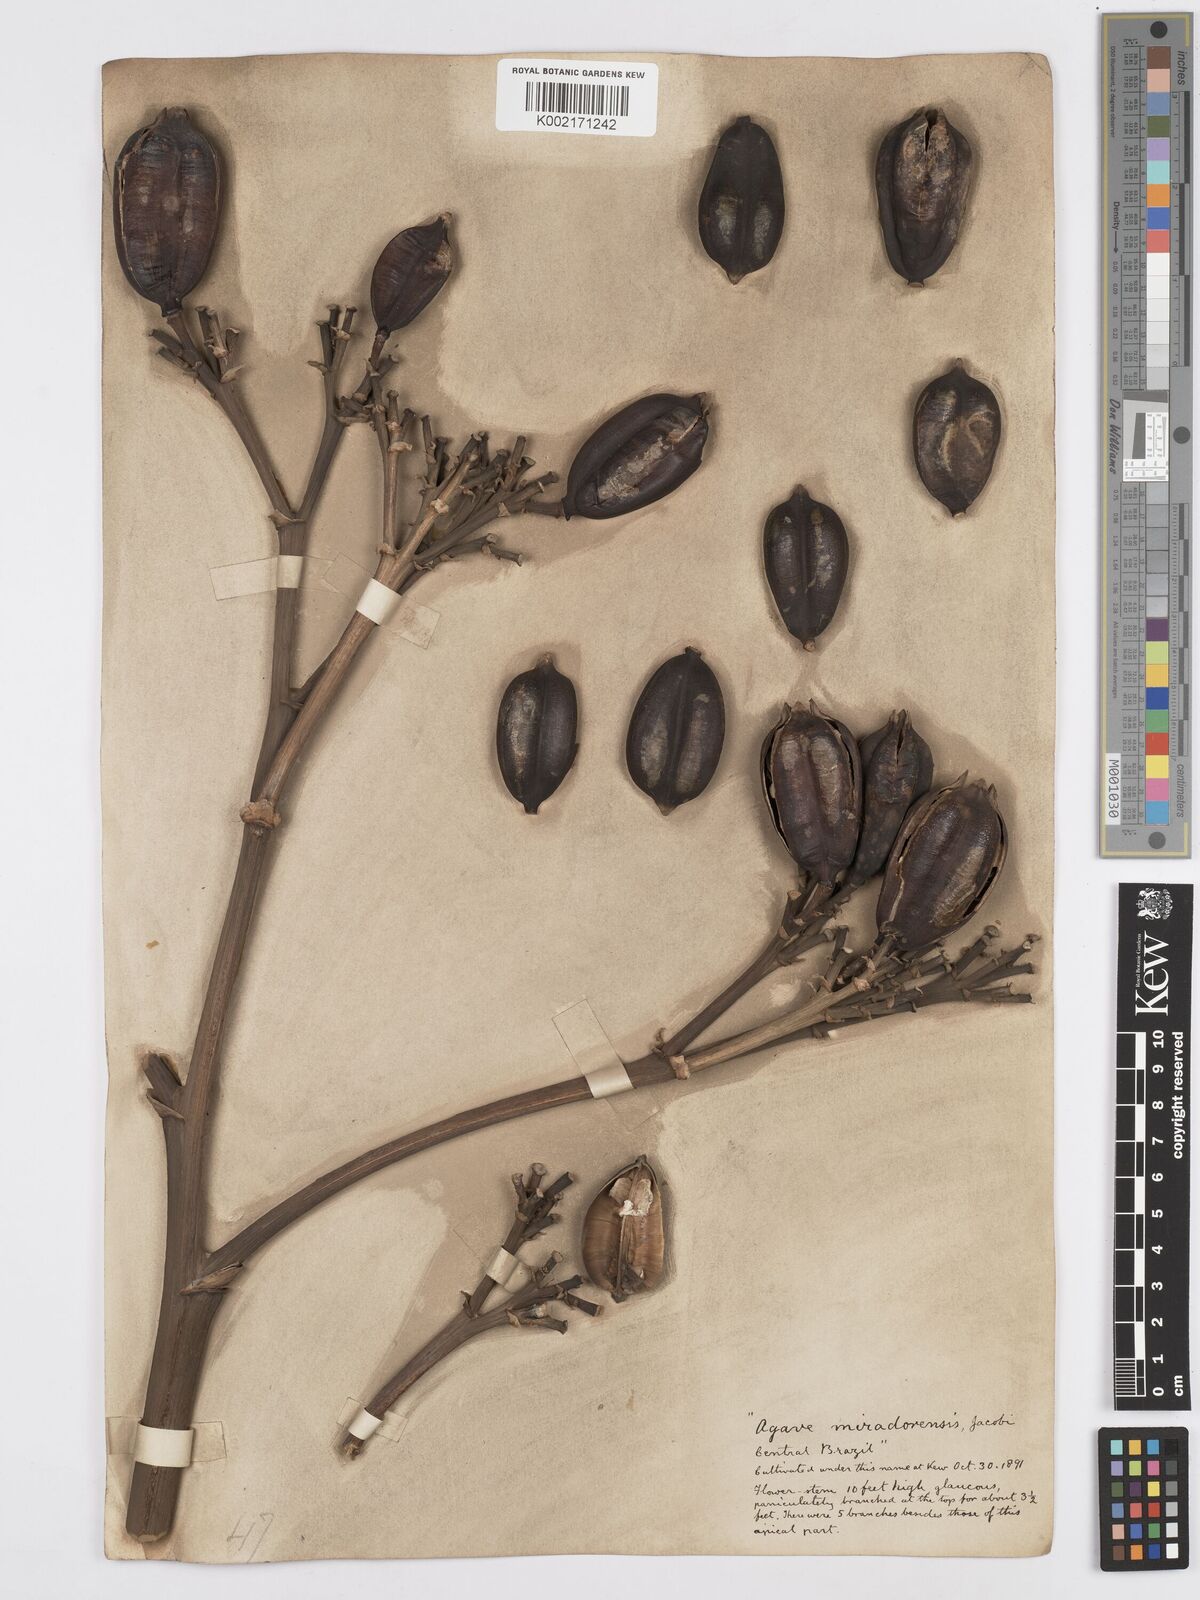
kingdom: Plantae
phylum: Tracheophyta
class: Liliopsida
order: Asparagales
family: Asparagaceae
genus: Agave
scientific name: Agave demeesteriana
